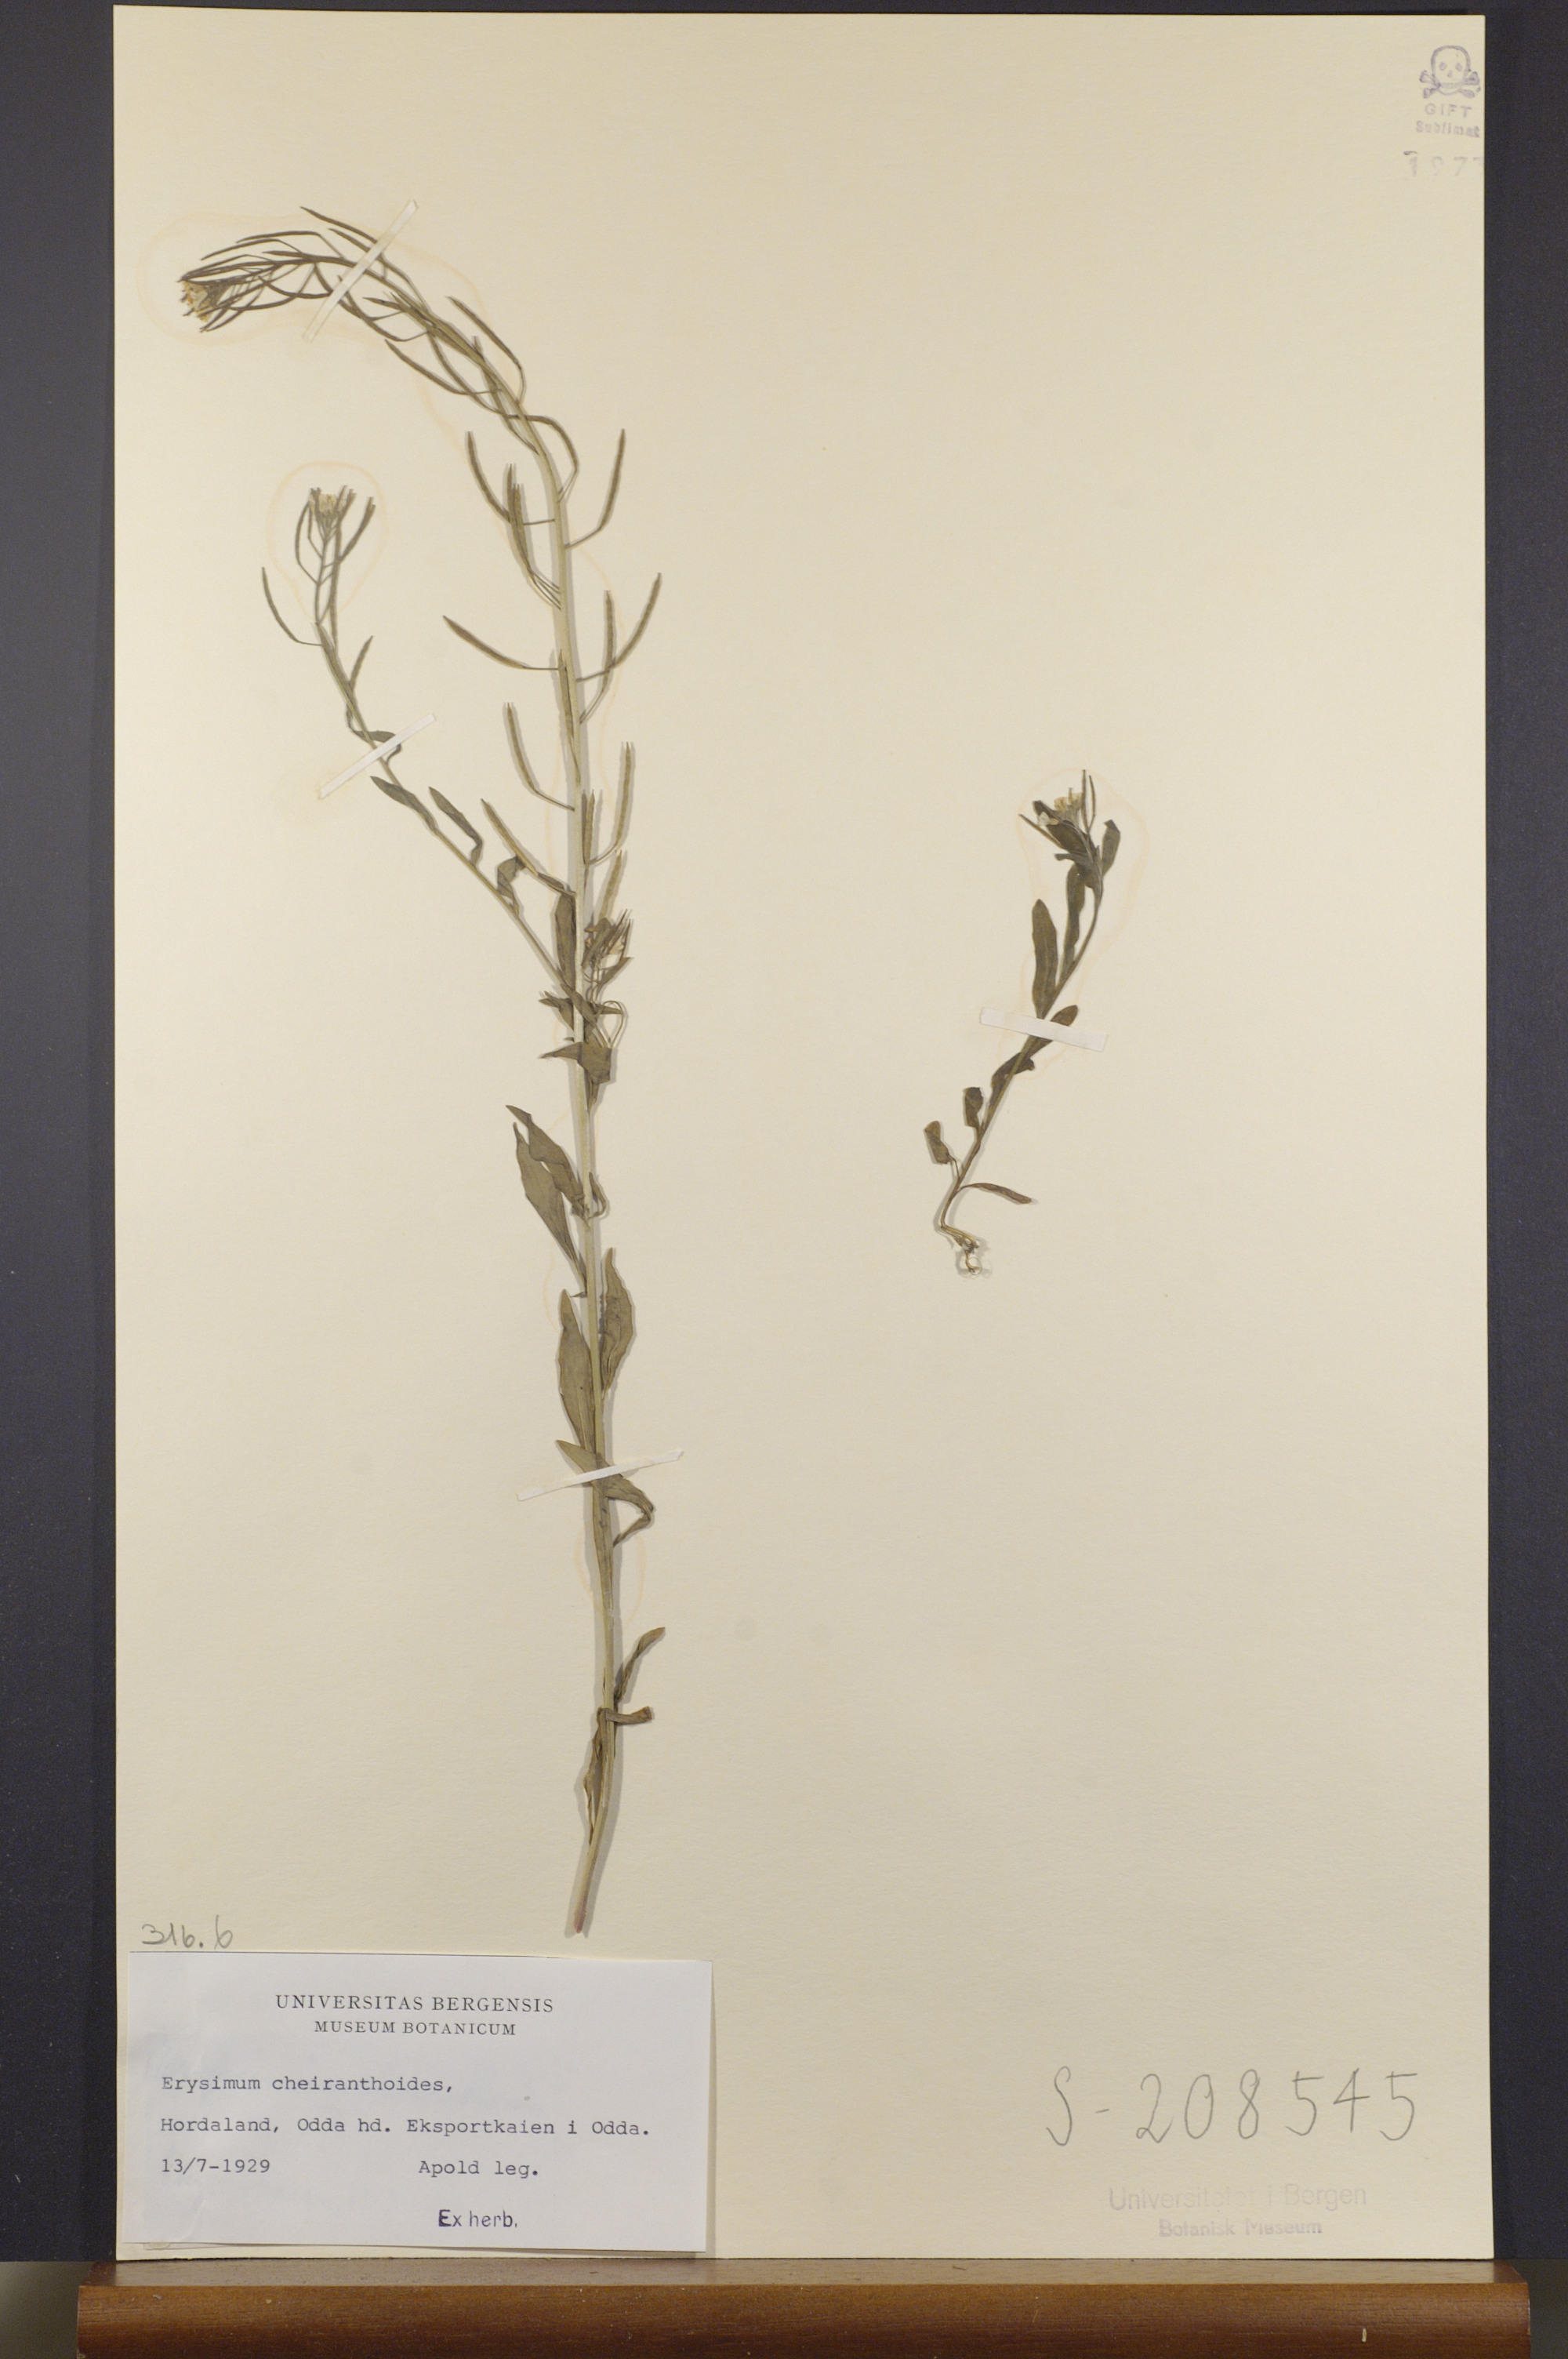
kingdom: Plantae
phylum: Tracheophyta
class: Magnoliopsida
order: Brassicales
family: Brassicaceae
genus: Erysimum
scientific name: Erysimum cheiranthoides
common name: Treacle mustard
